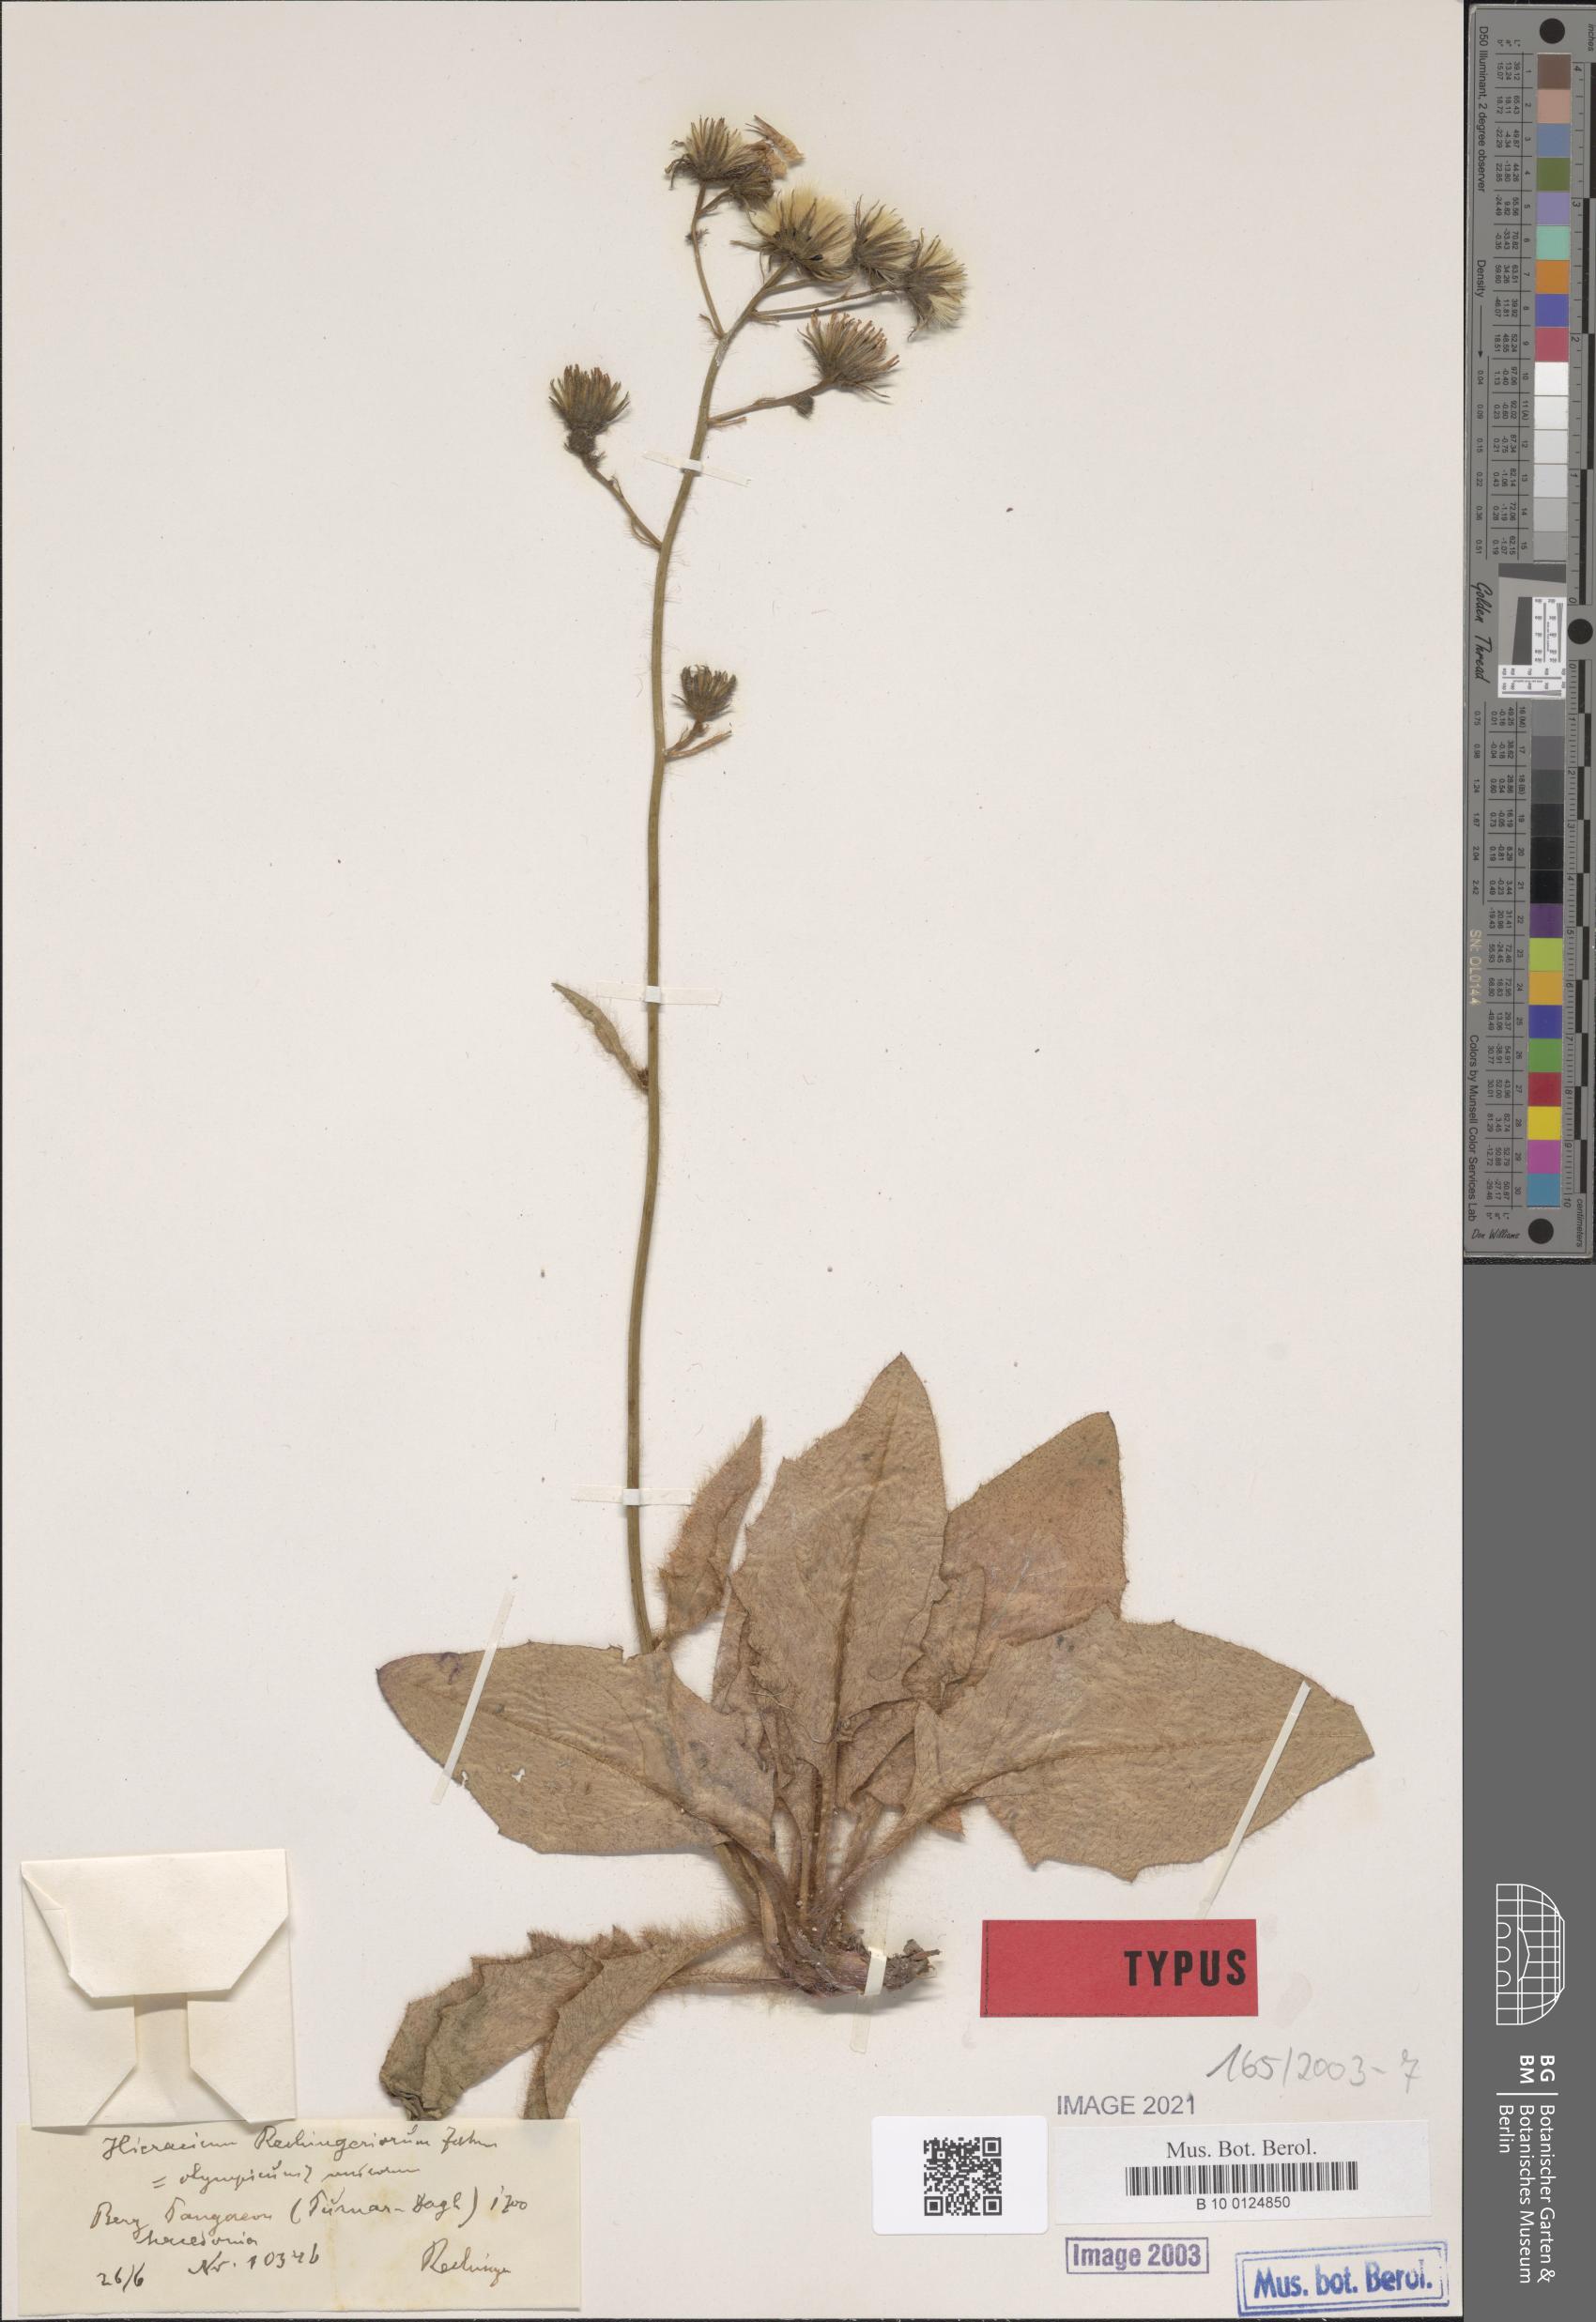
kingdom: Plantae
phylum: Tracheophyta
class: Magnoliopsida
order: Asterales
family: Asteraceae
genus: Hieracium
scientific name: Hieracium rechingerorum
